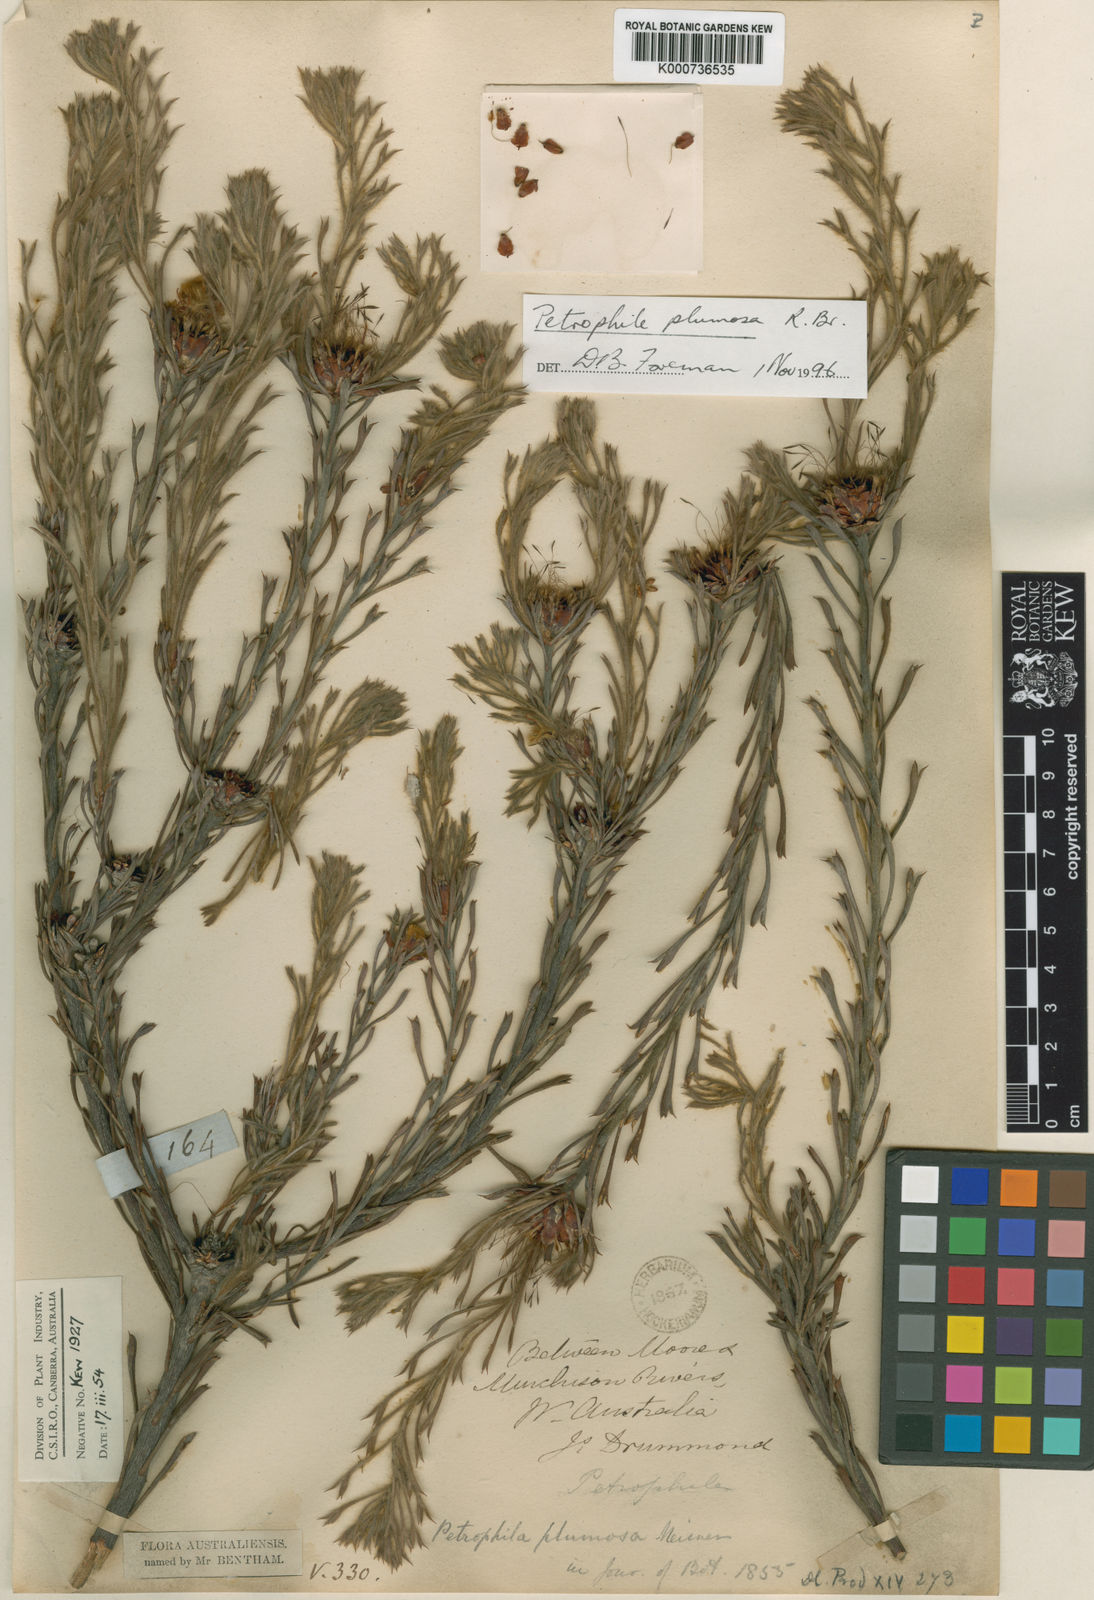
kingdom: Plantae
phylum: Tracheophyta
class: Magnoliopsida
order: Proteales
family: Proteaceae
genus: Petrophile
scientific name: Petrophile
